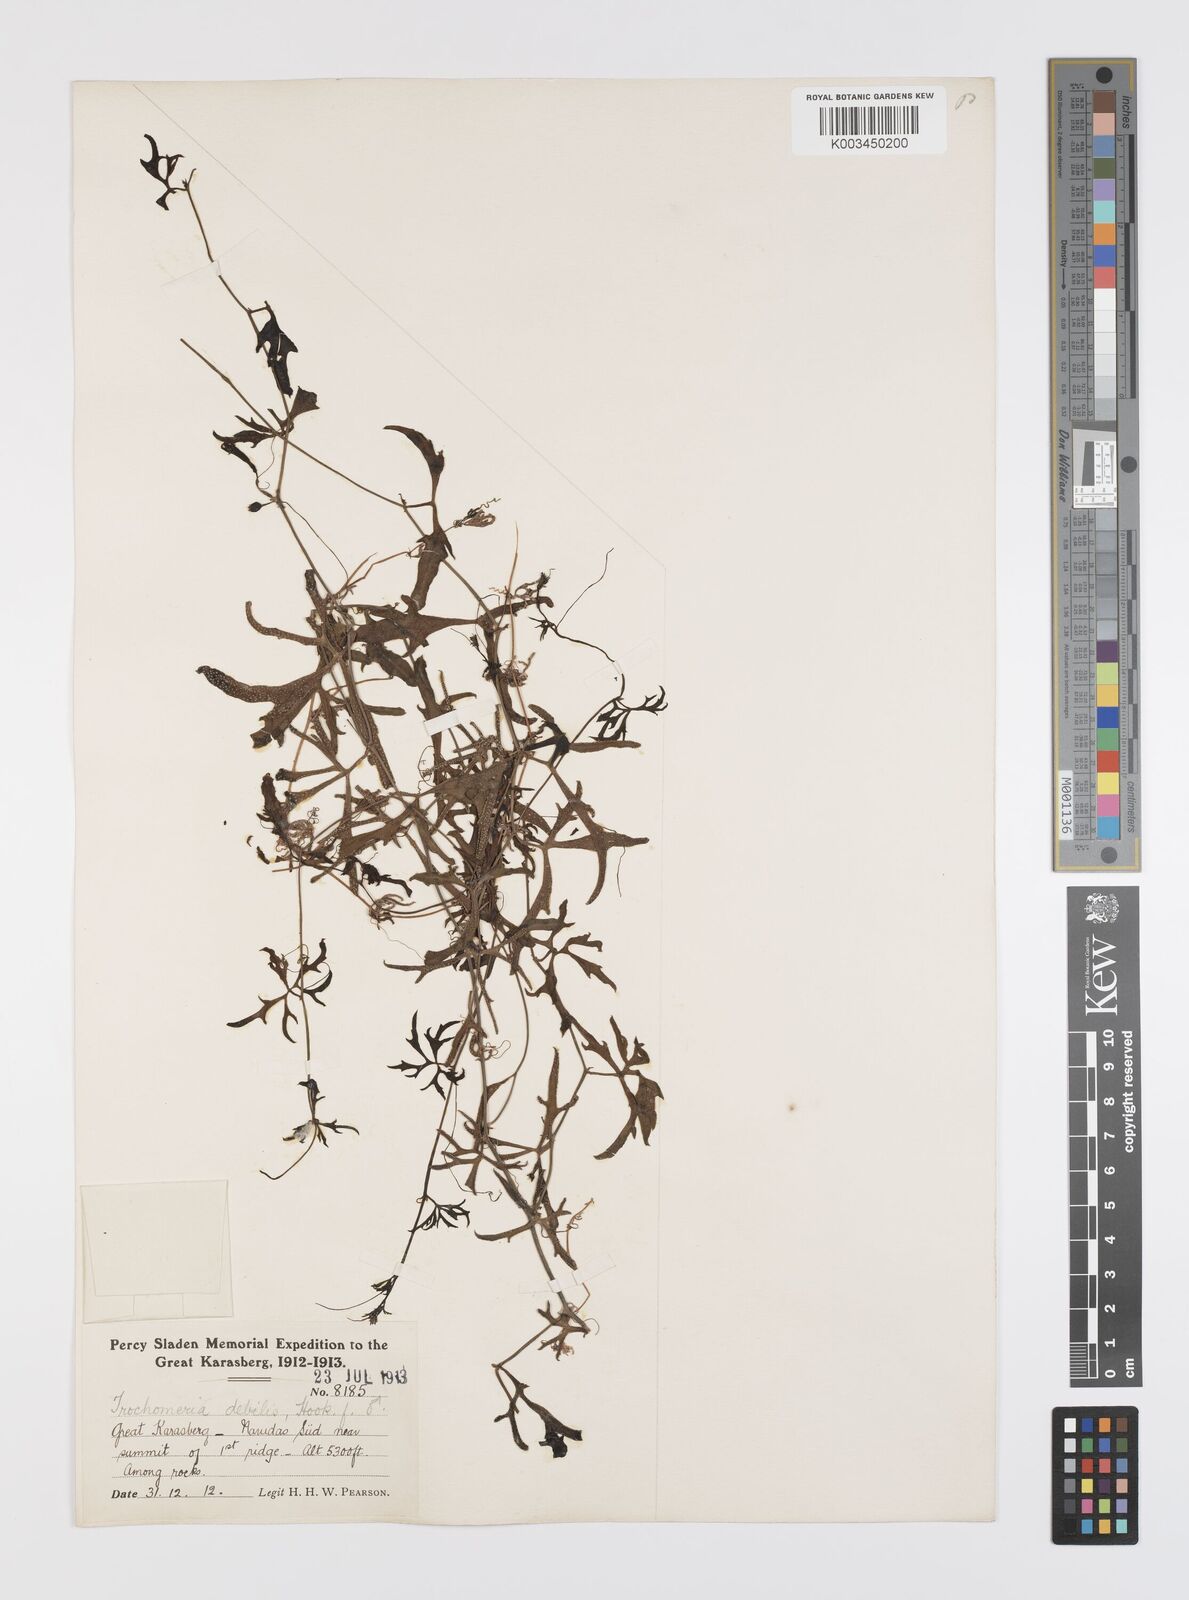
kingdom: Plantae
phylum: Tracheophyta
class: Magnoliopsida
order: Cucurbitales
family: Cucurbitaceae
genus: Trochomeria
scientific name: Trochomeria debilis
